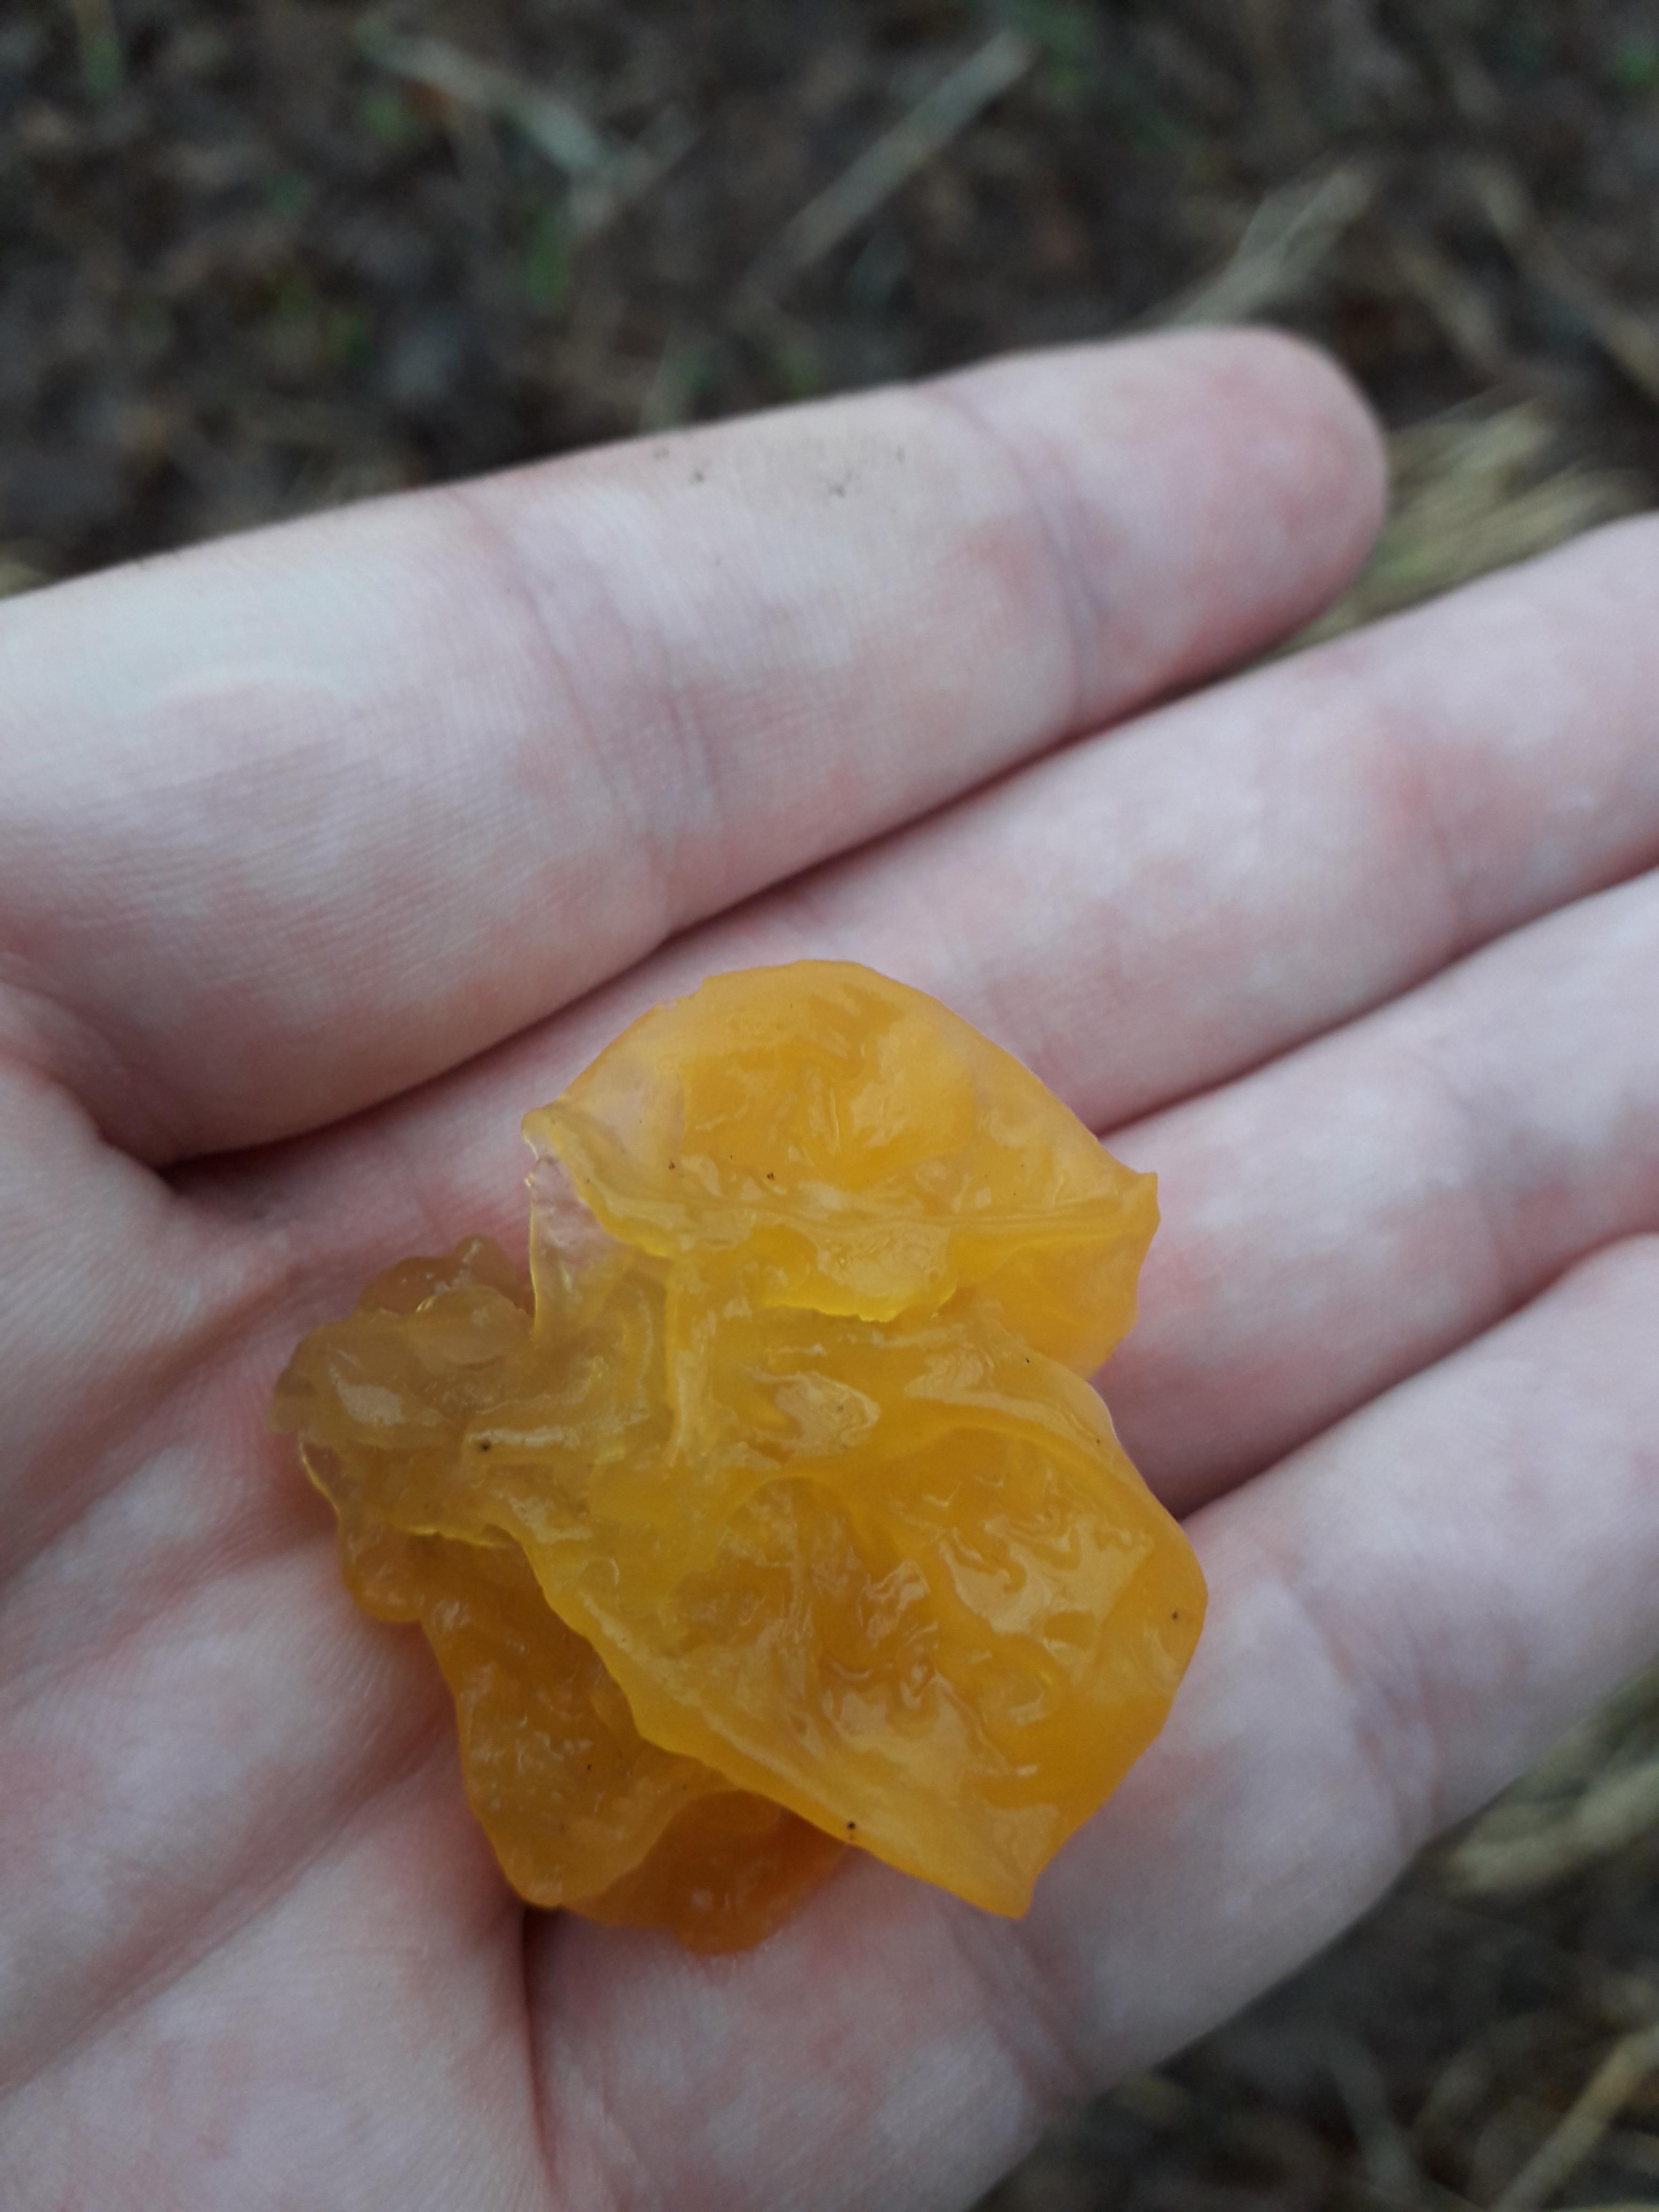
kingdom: Fungi
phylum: Basidiomycota
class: Tremellomycetes
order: Tremellales
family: Tremellaceae
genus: Tremella
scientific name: Tremella mesenterica
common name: gul bævresvamp
